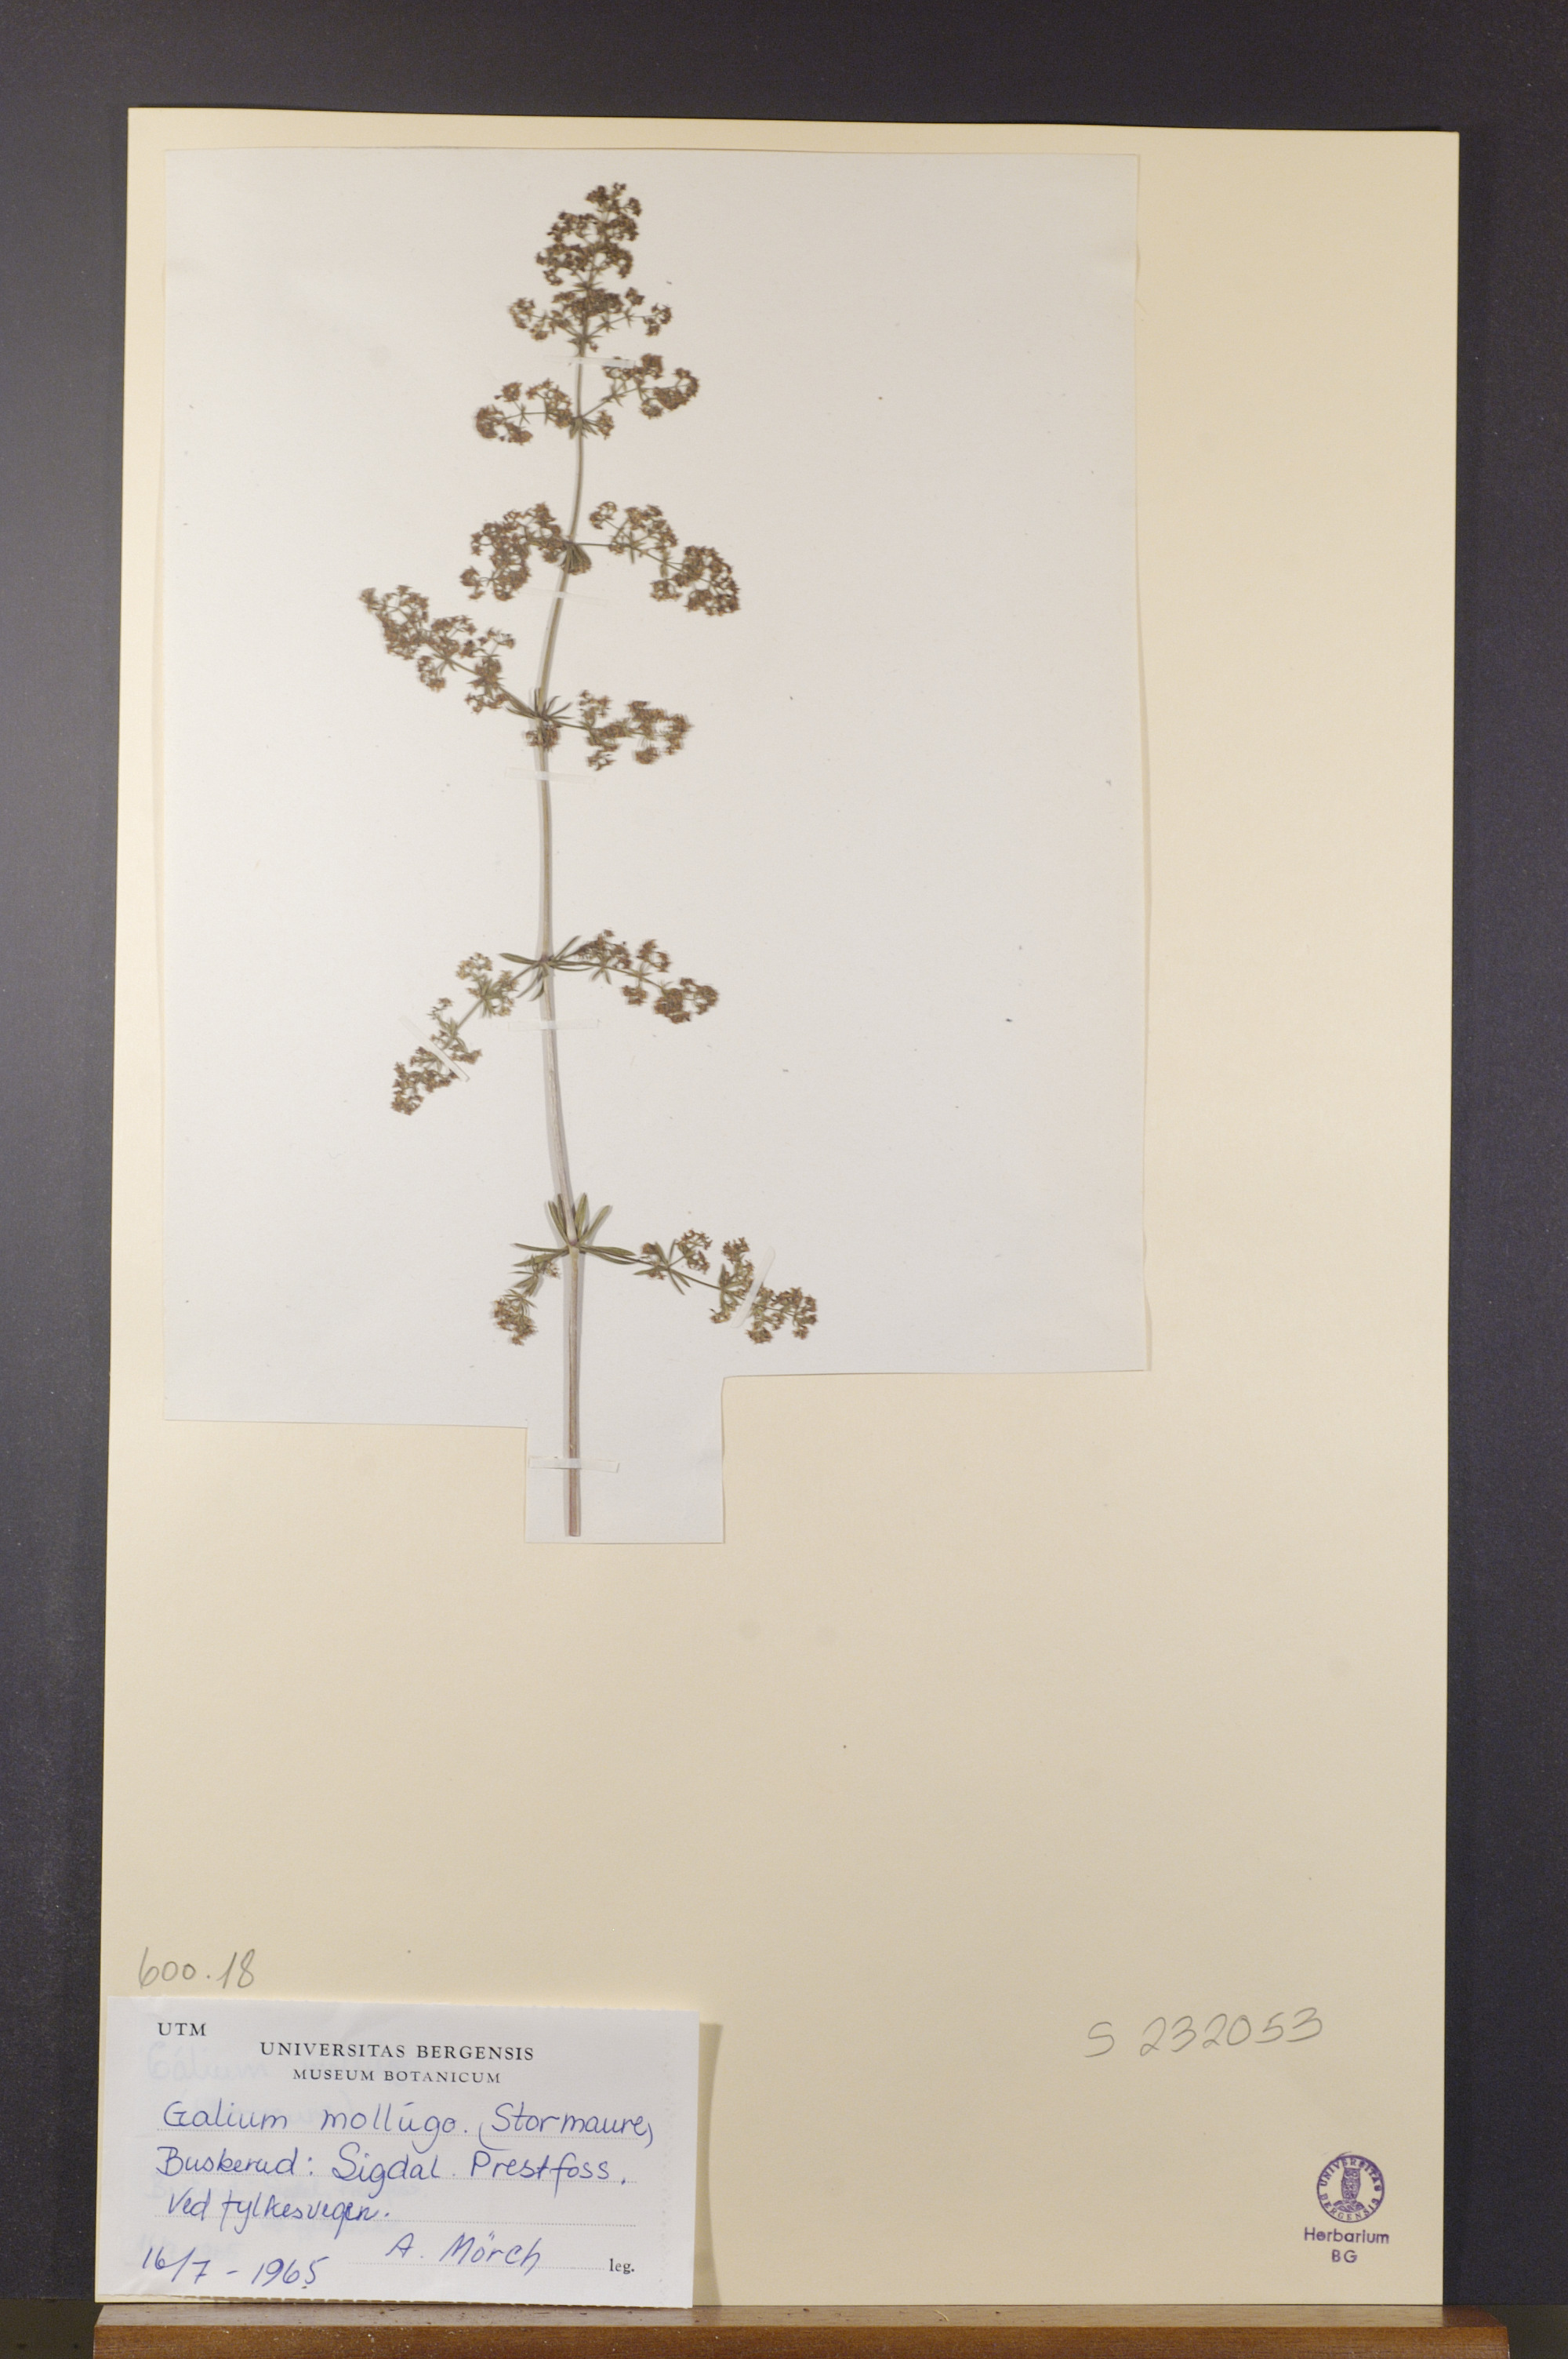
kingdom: Plantae
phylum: Tracheophyta
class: Magnoliopsida
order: Gentianales
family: Rubiaceae
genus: Galium
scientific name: Galium mollugo
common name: Hedge bedstraw
